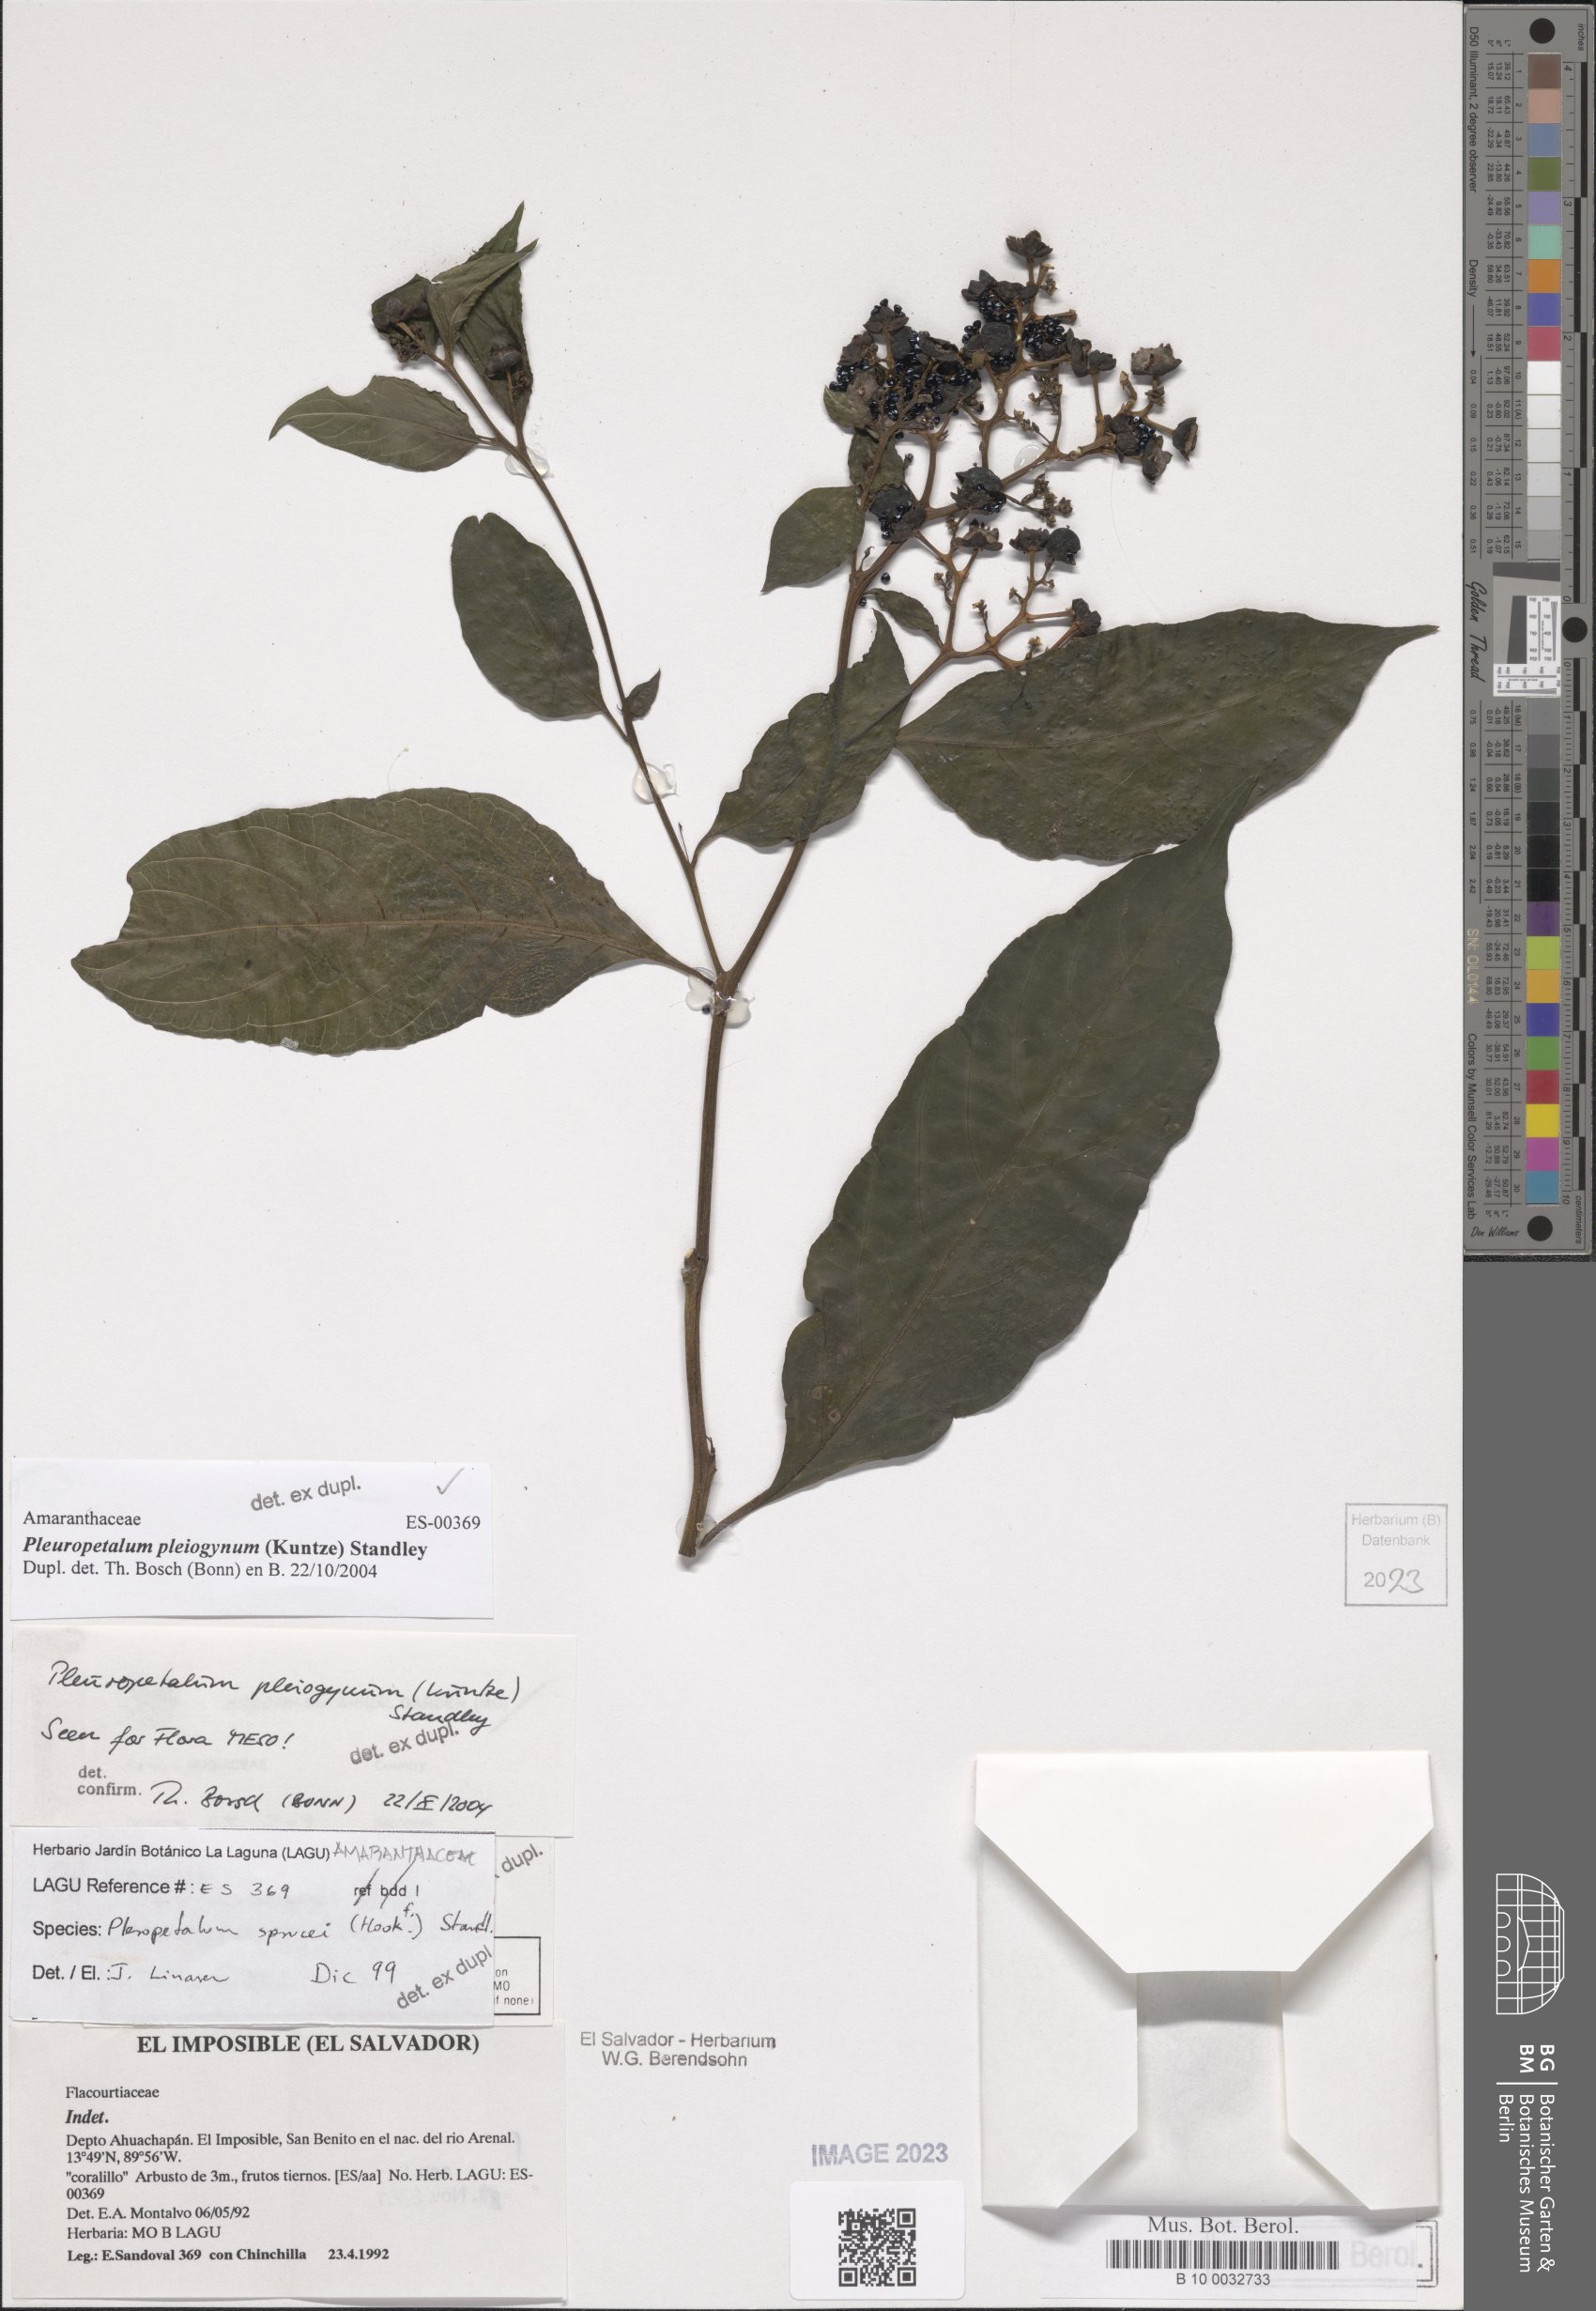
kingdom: Plantae
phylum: Tracheophyta
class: Magnoliopsida
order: Caryophyllales
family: Amaranthaceae
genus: Pleuropetalum
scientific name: Pleuropetalum pleiogynum
